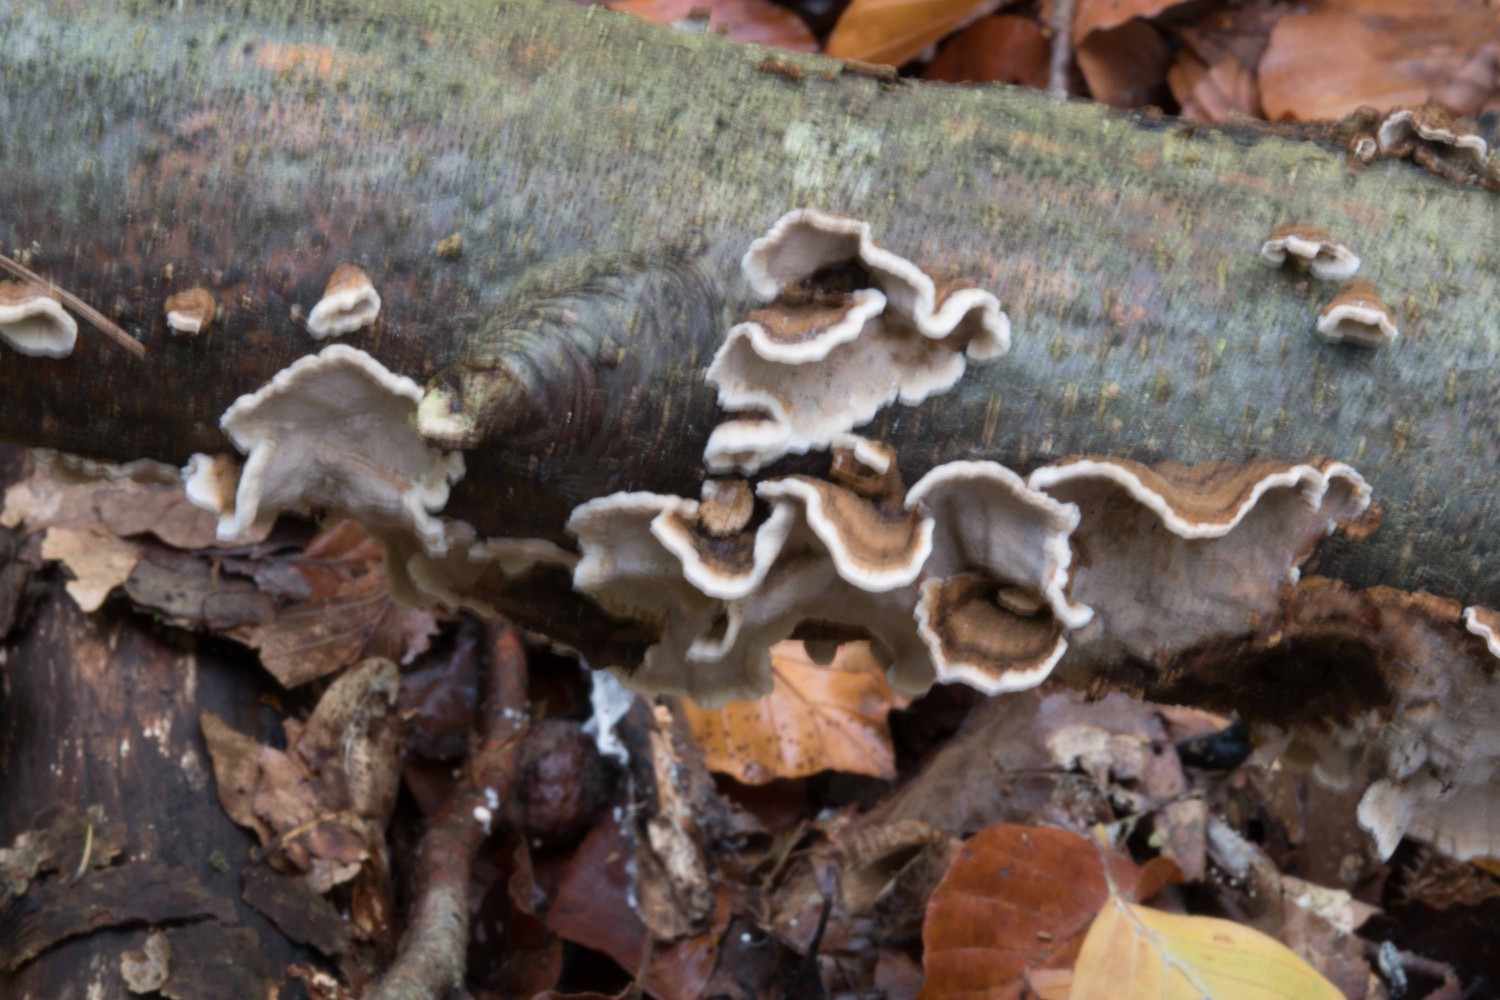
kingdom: Fungi
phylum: Basidiomycota
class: Agaricomycetes
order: Russulales
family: Hericiaceae
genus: Laxitextum
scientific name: Laxitextum bicolor
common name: tvefarvet filtskind
